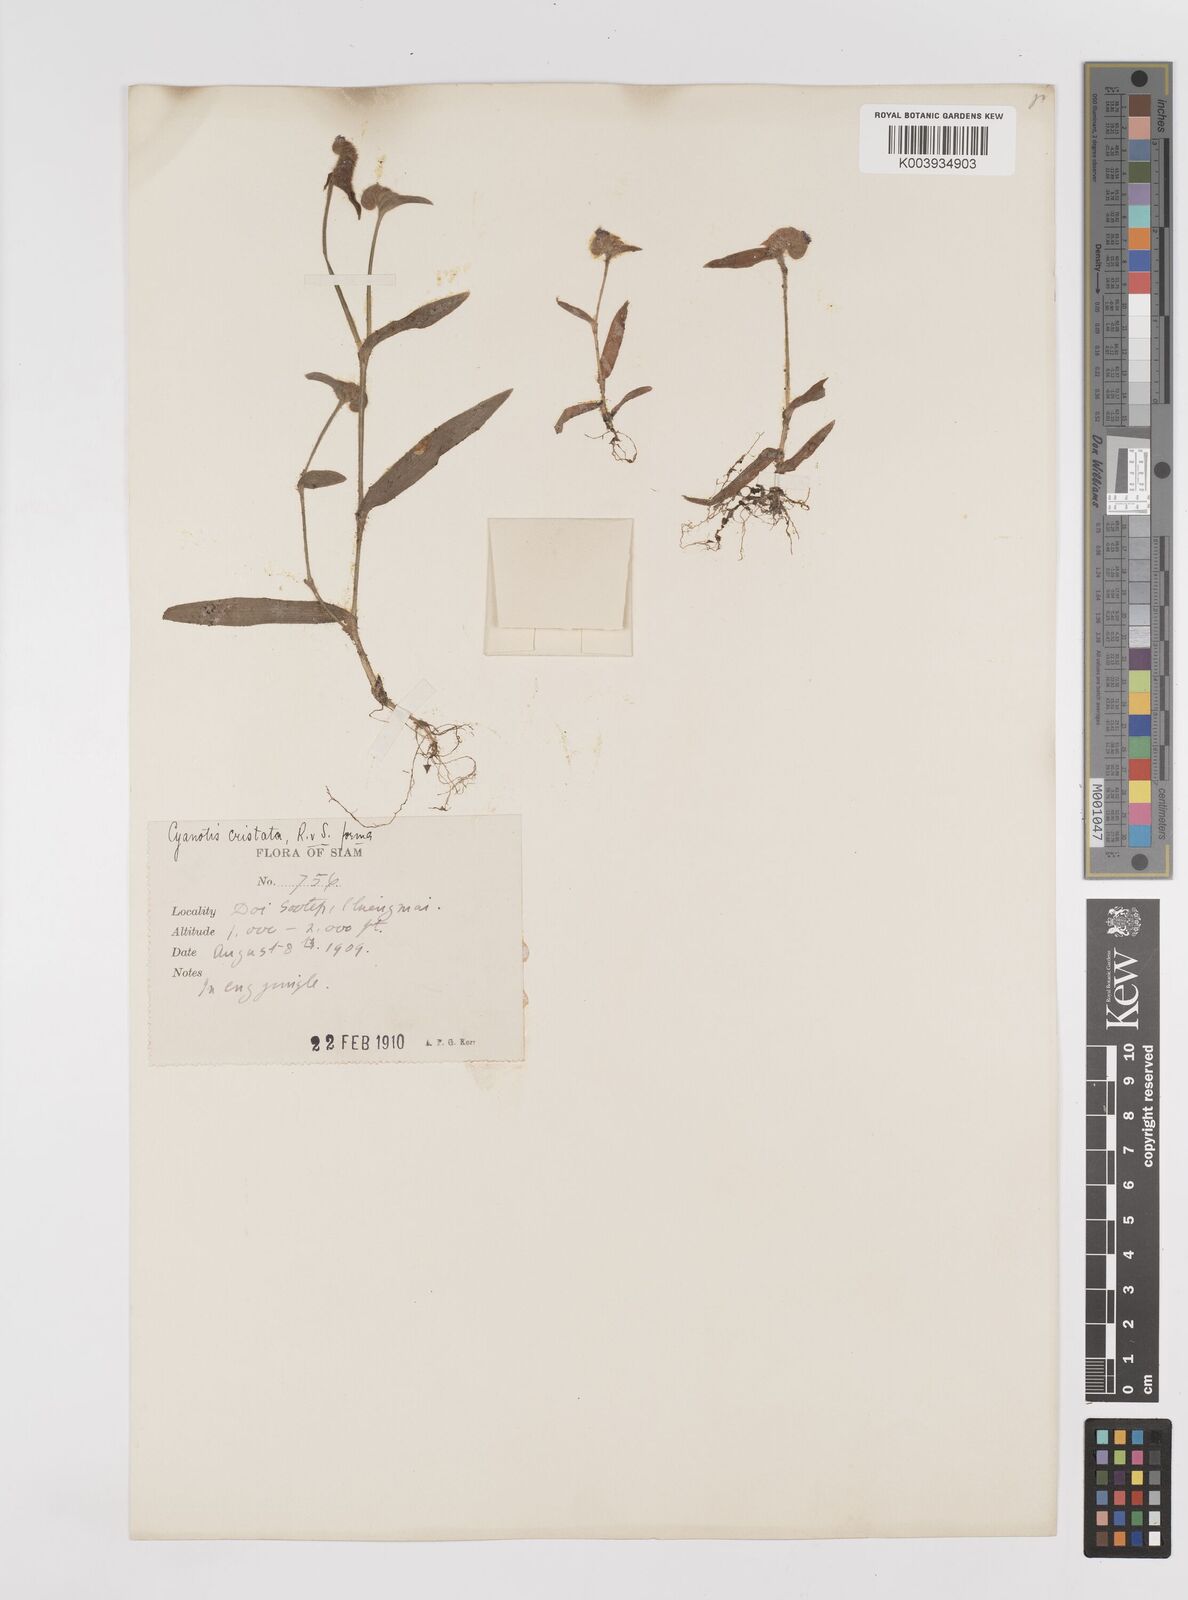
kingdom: Plantae
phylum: Tracheophyta
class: Liliopsida
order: Commelinales
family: Commelinaceae
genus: Cyanotis
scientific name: Cyanotis cristata
